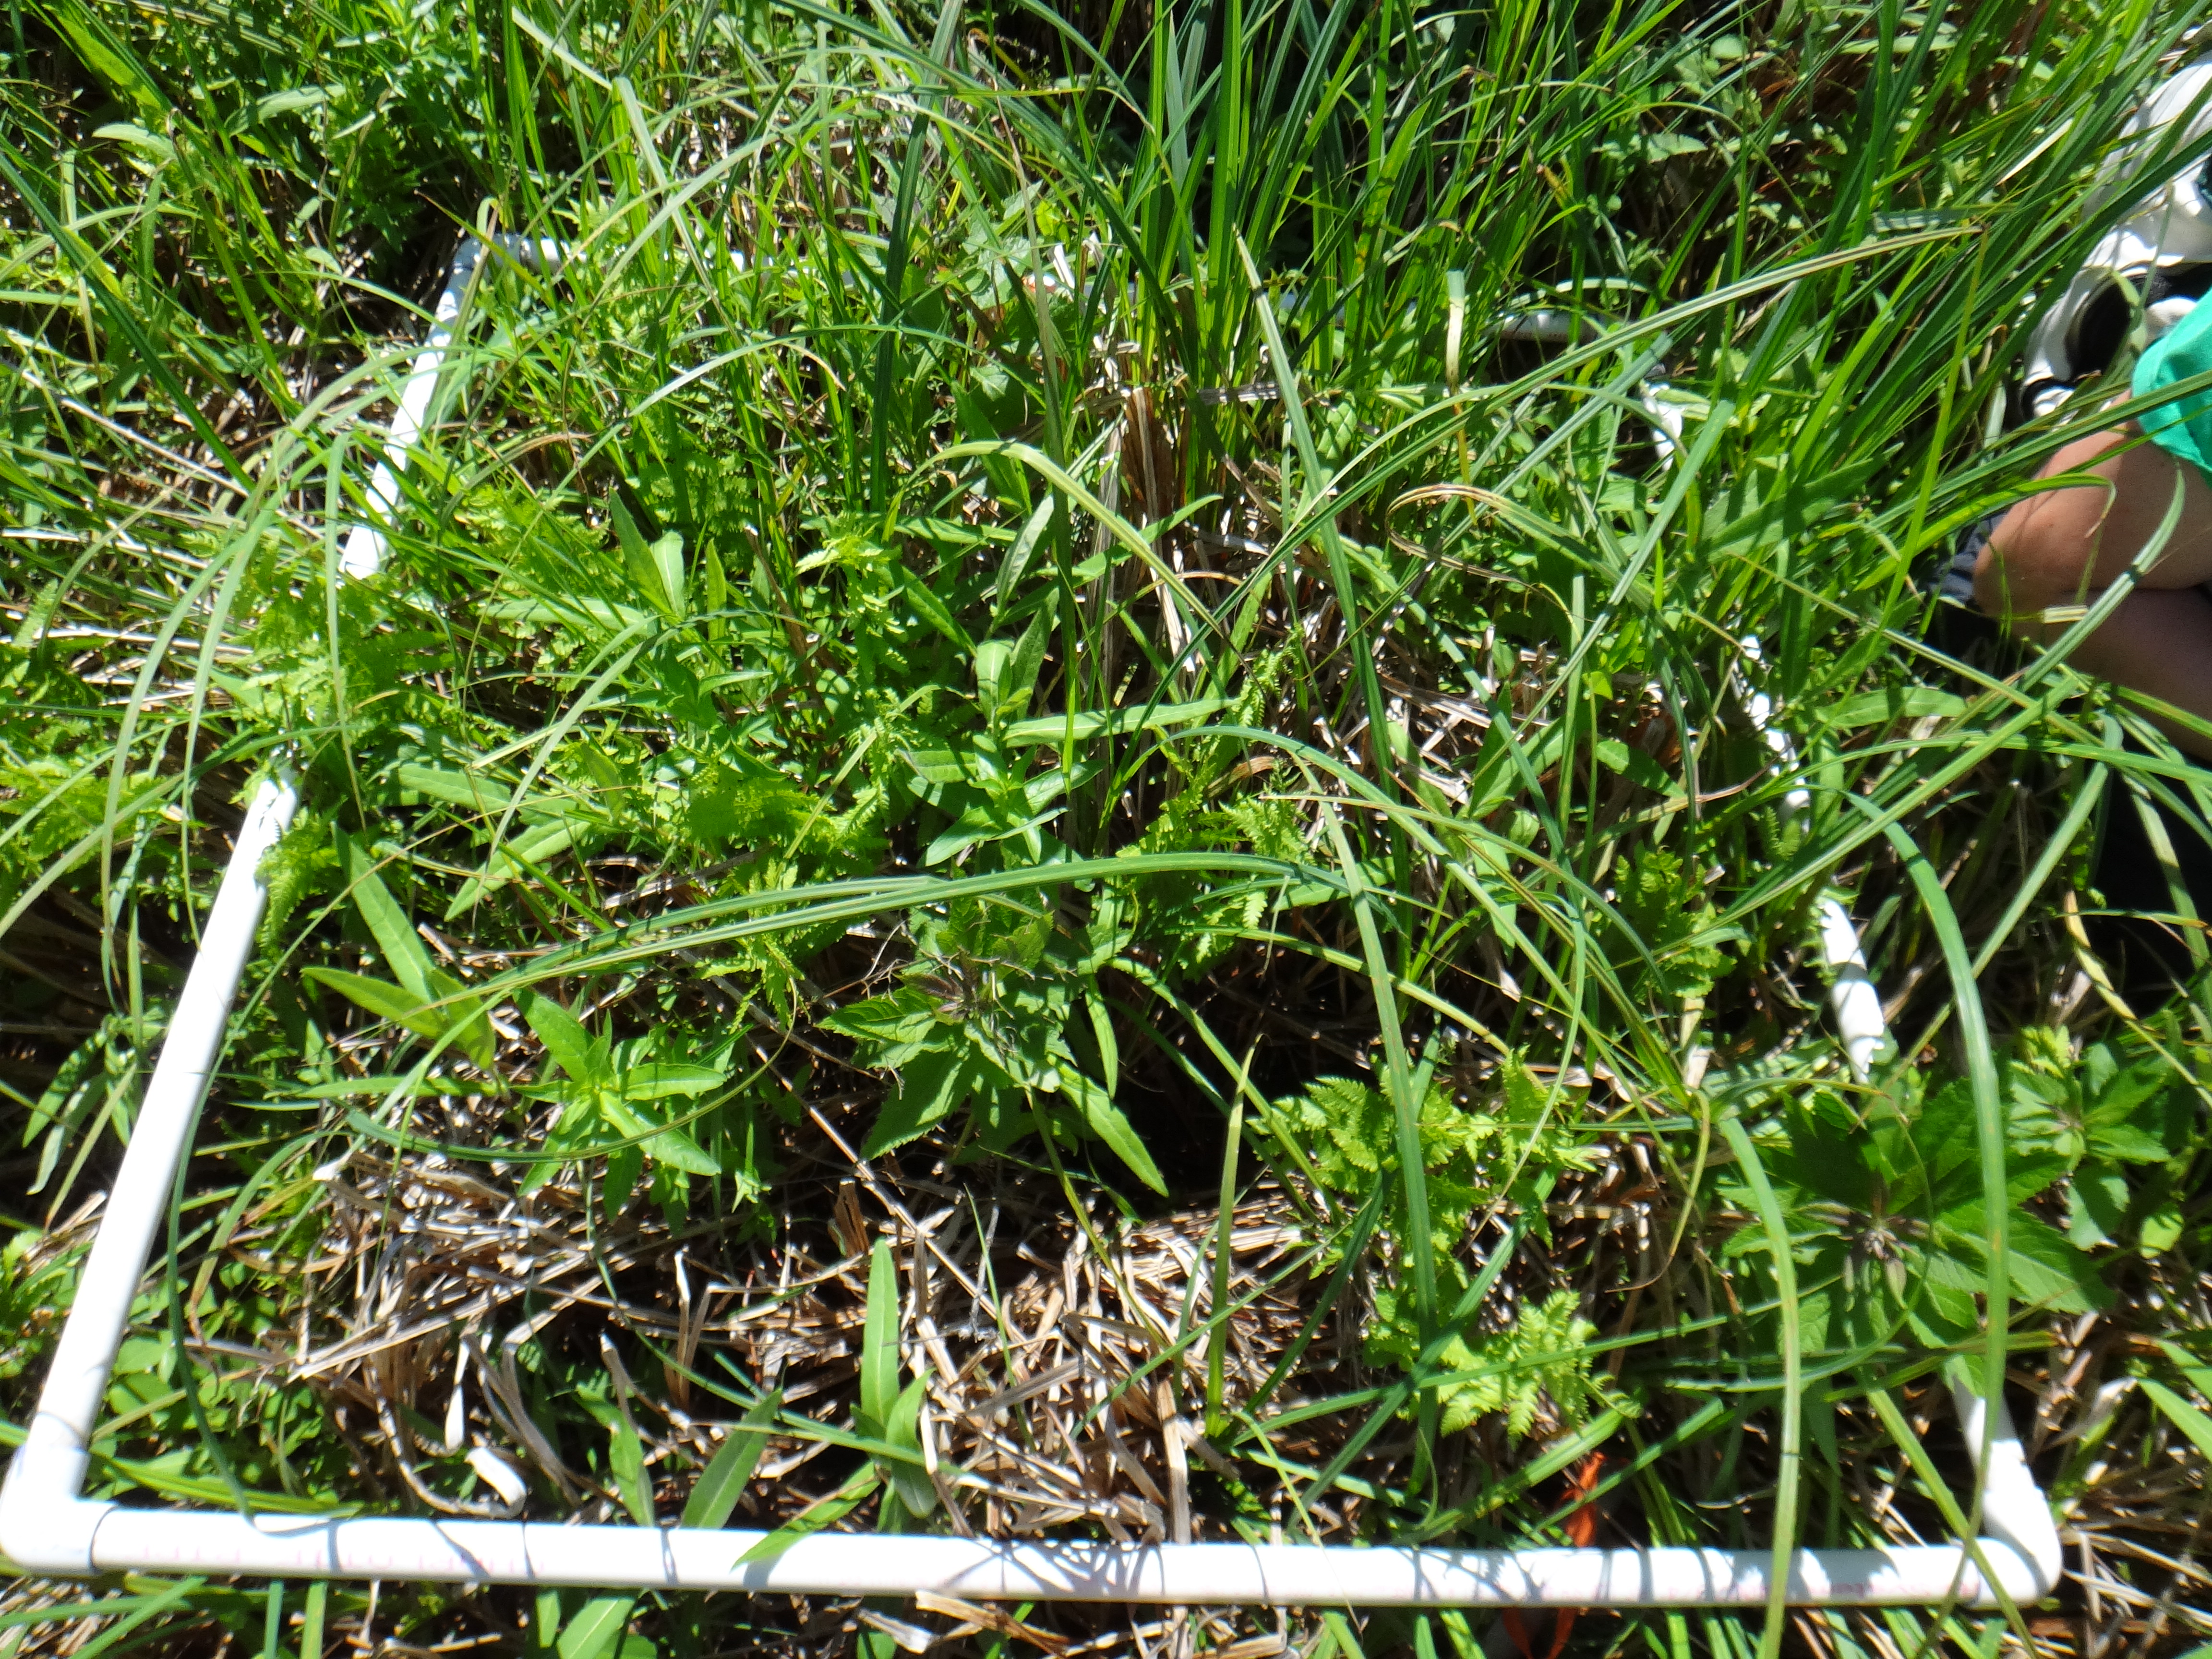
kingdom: Plantae
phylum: Tracheophyta
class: Magnoliopsida
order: Asterales
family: Campanulaceae
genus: Palustricodon
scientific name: Palustricodon aparinoides
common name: Bedstraw bellflower
